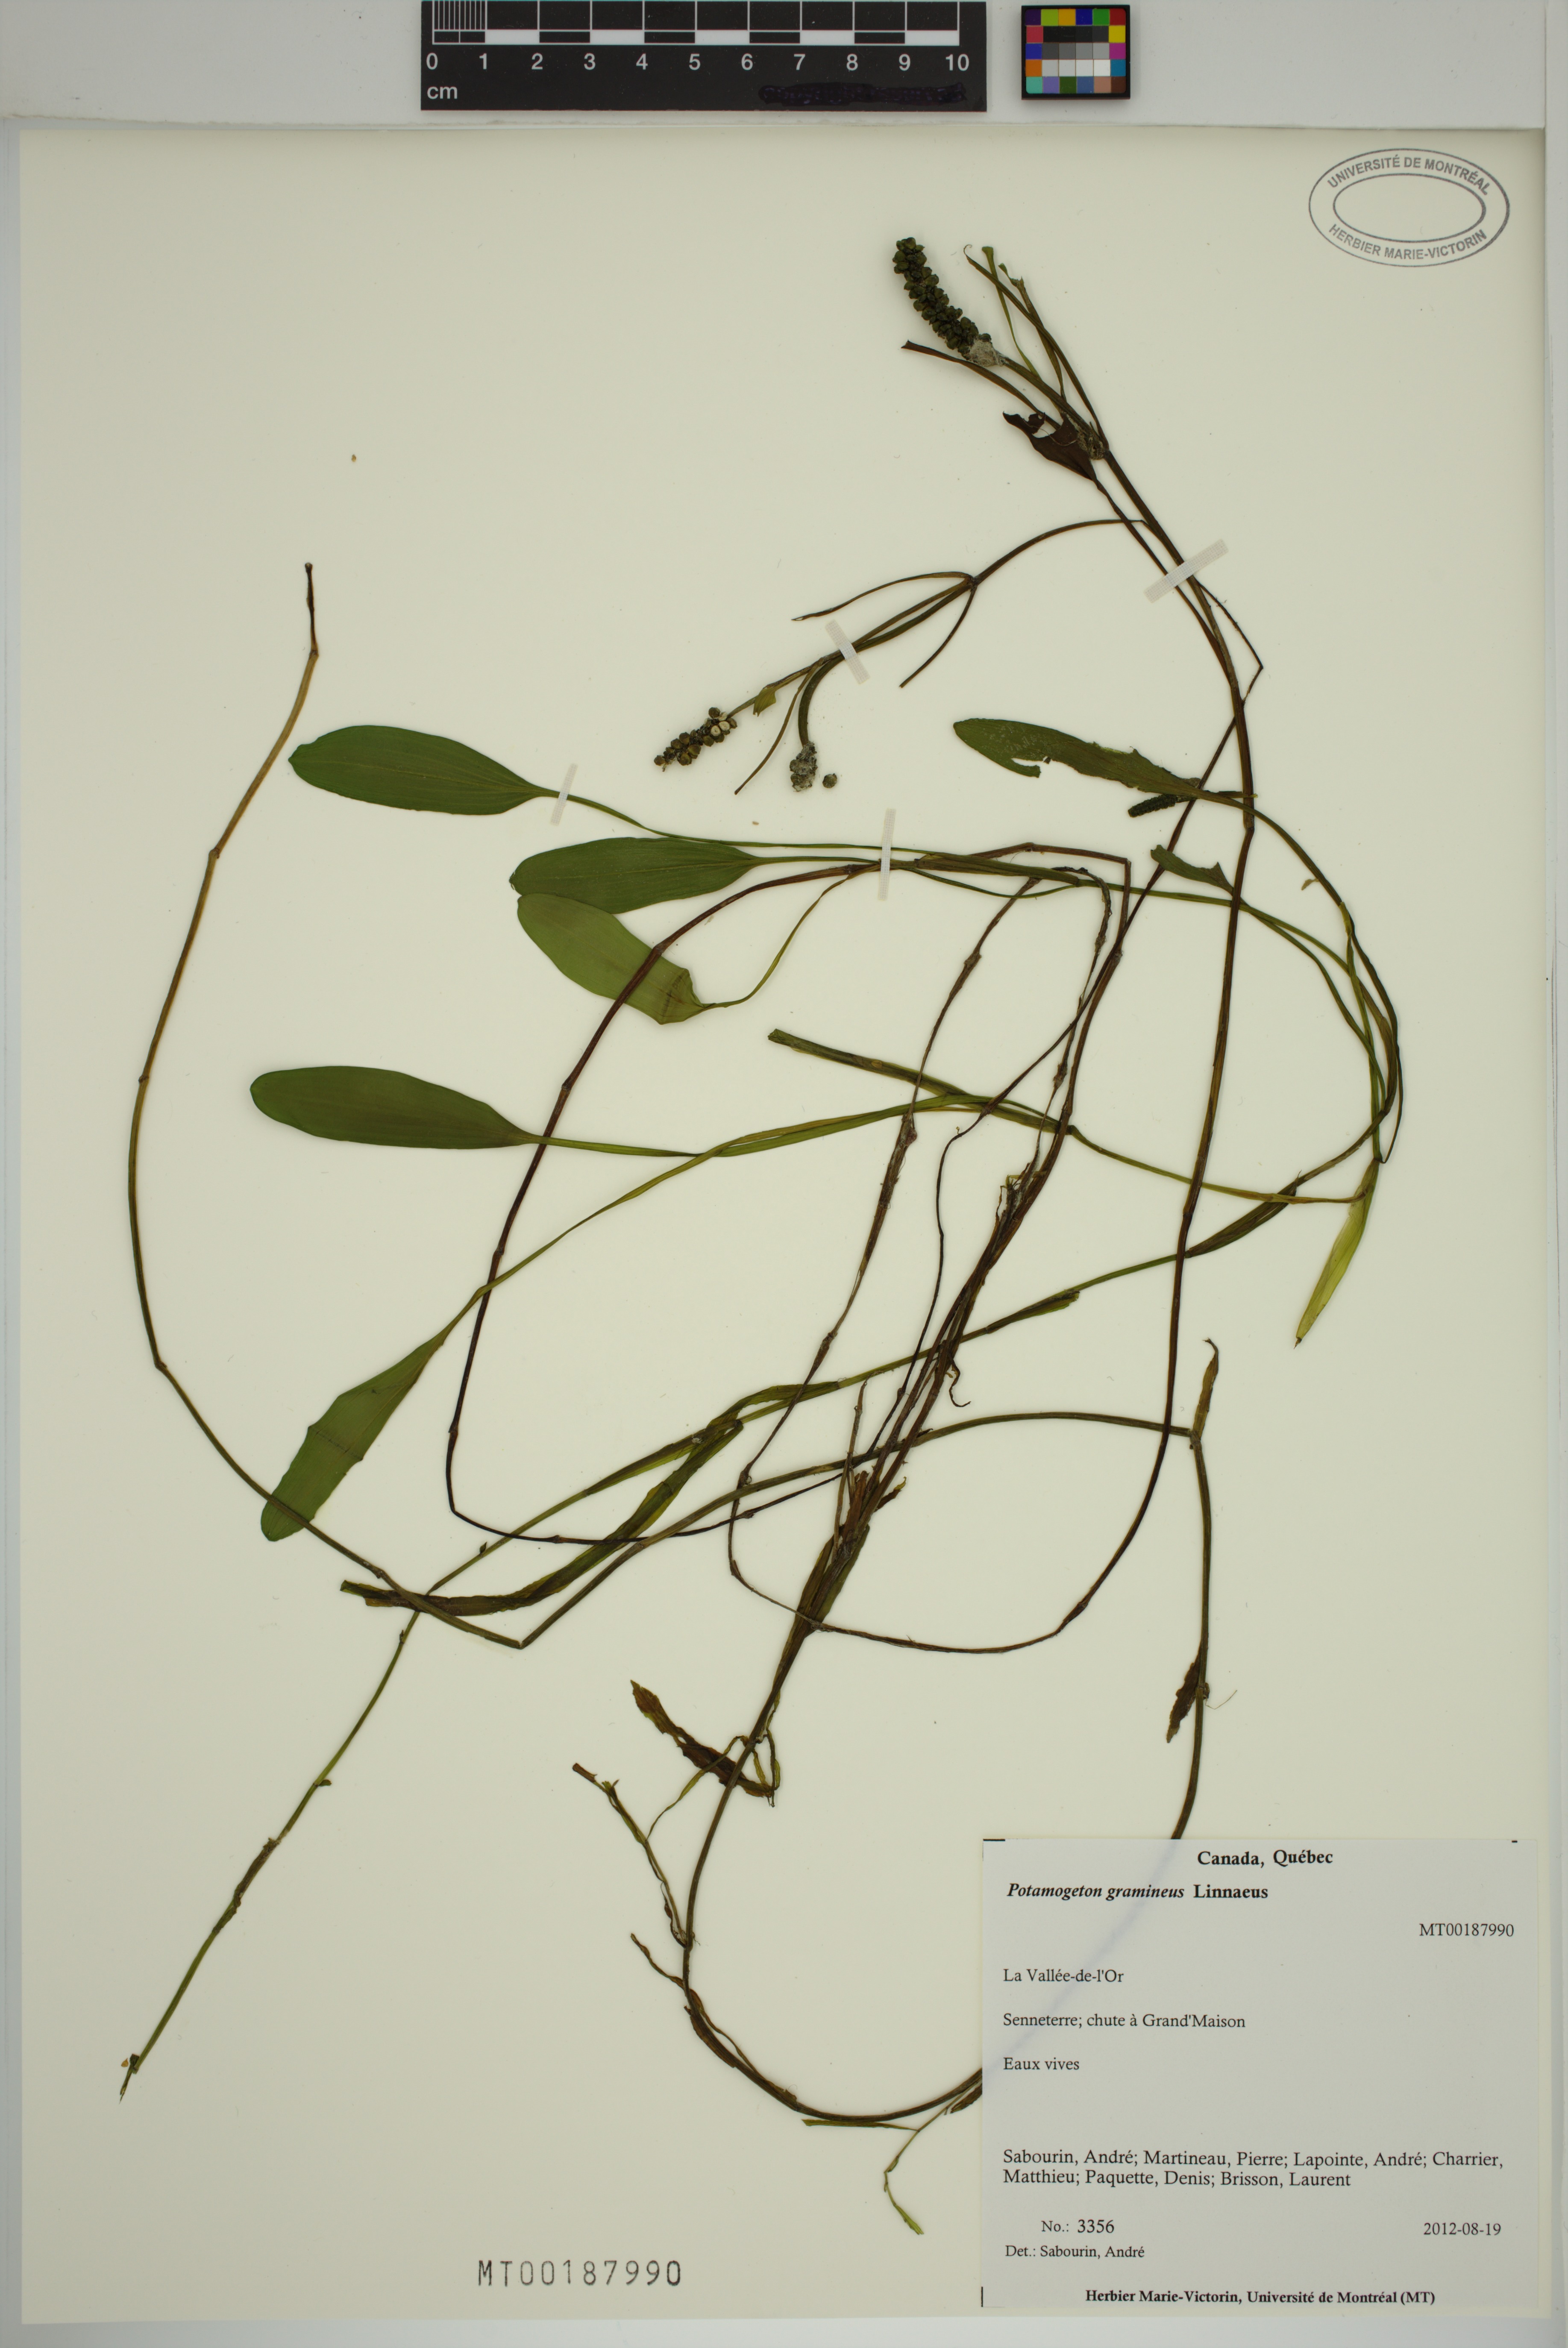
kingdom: Plantae
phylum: Tracheophyta
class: Liliopsida
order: Alismatales
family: Potamogetonaceae
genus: Potamogeton
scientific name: Potamogeton gramineus
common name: Various-leaved pondweed
